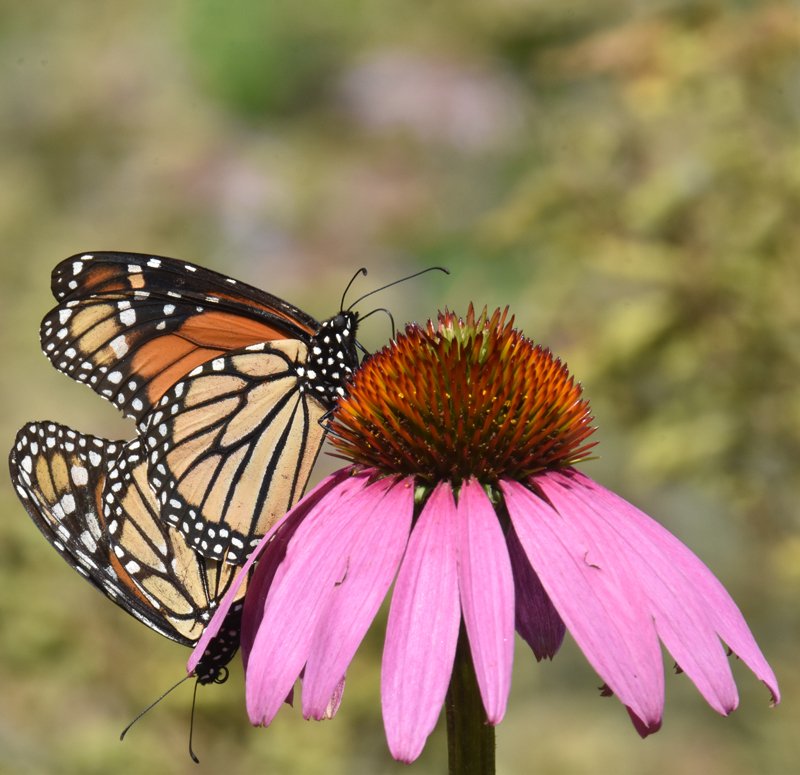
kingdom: Animalia
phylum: Arthropoda
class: Insecta
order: Lepidoptera
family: Nymphalidae
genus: Danaus
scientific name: Danaus plexippus
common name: Monarch
